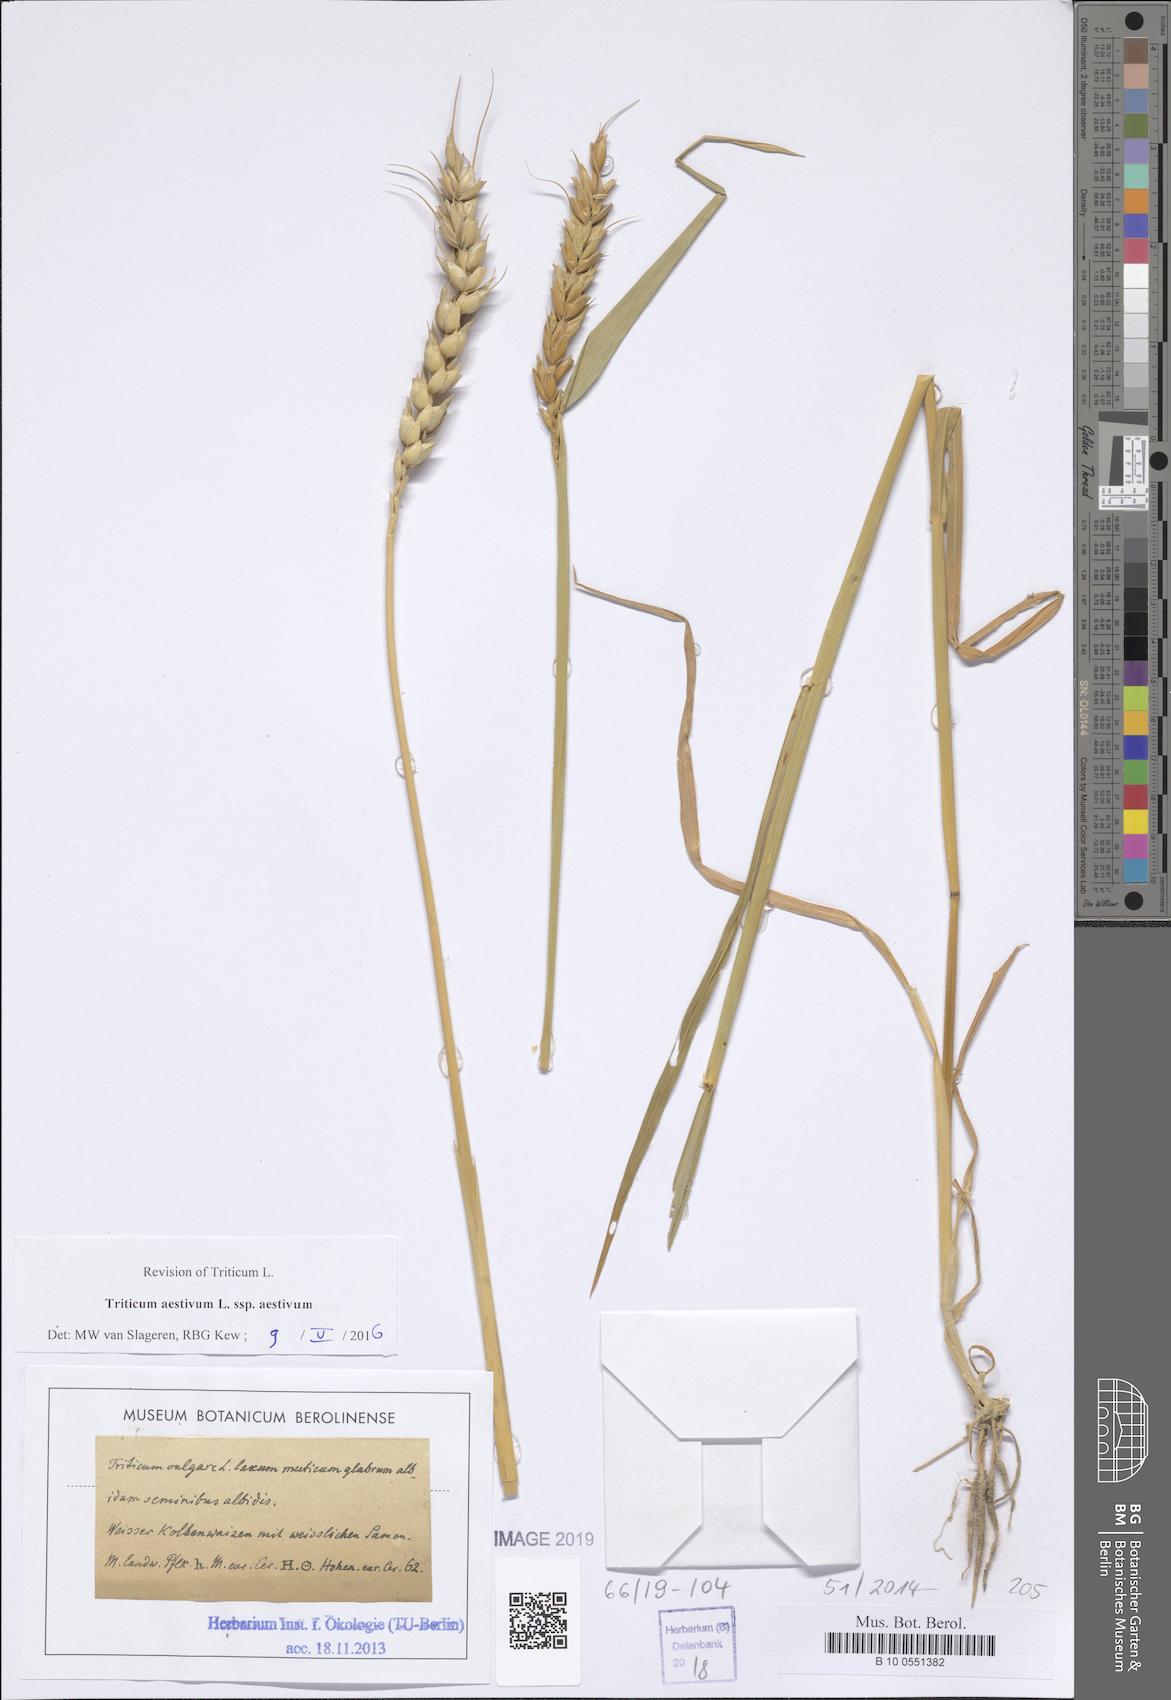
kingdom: Plantae
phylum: Tracheophyta
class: Liliopsida
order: Poales
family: Poaceae
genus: Triticum
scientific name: Triticum aestivum
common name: Common wheat
